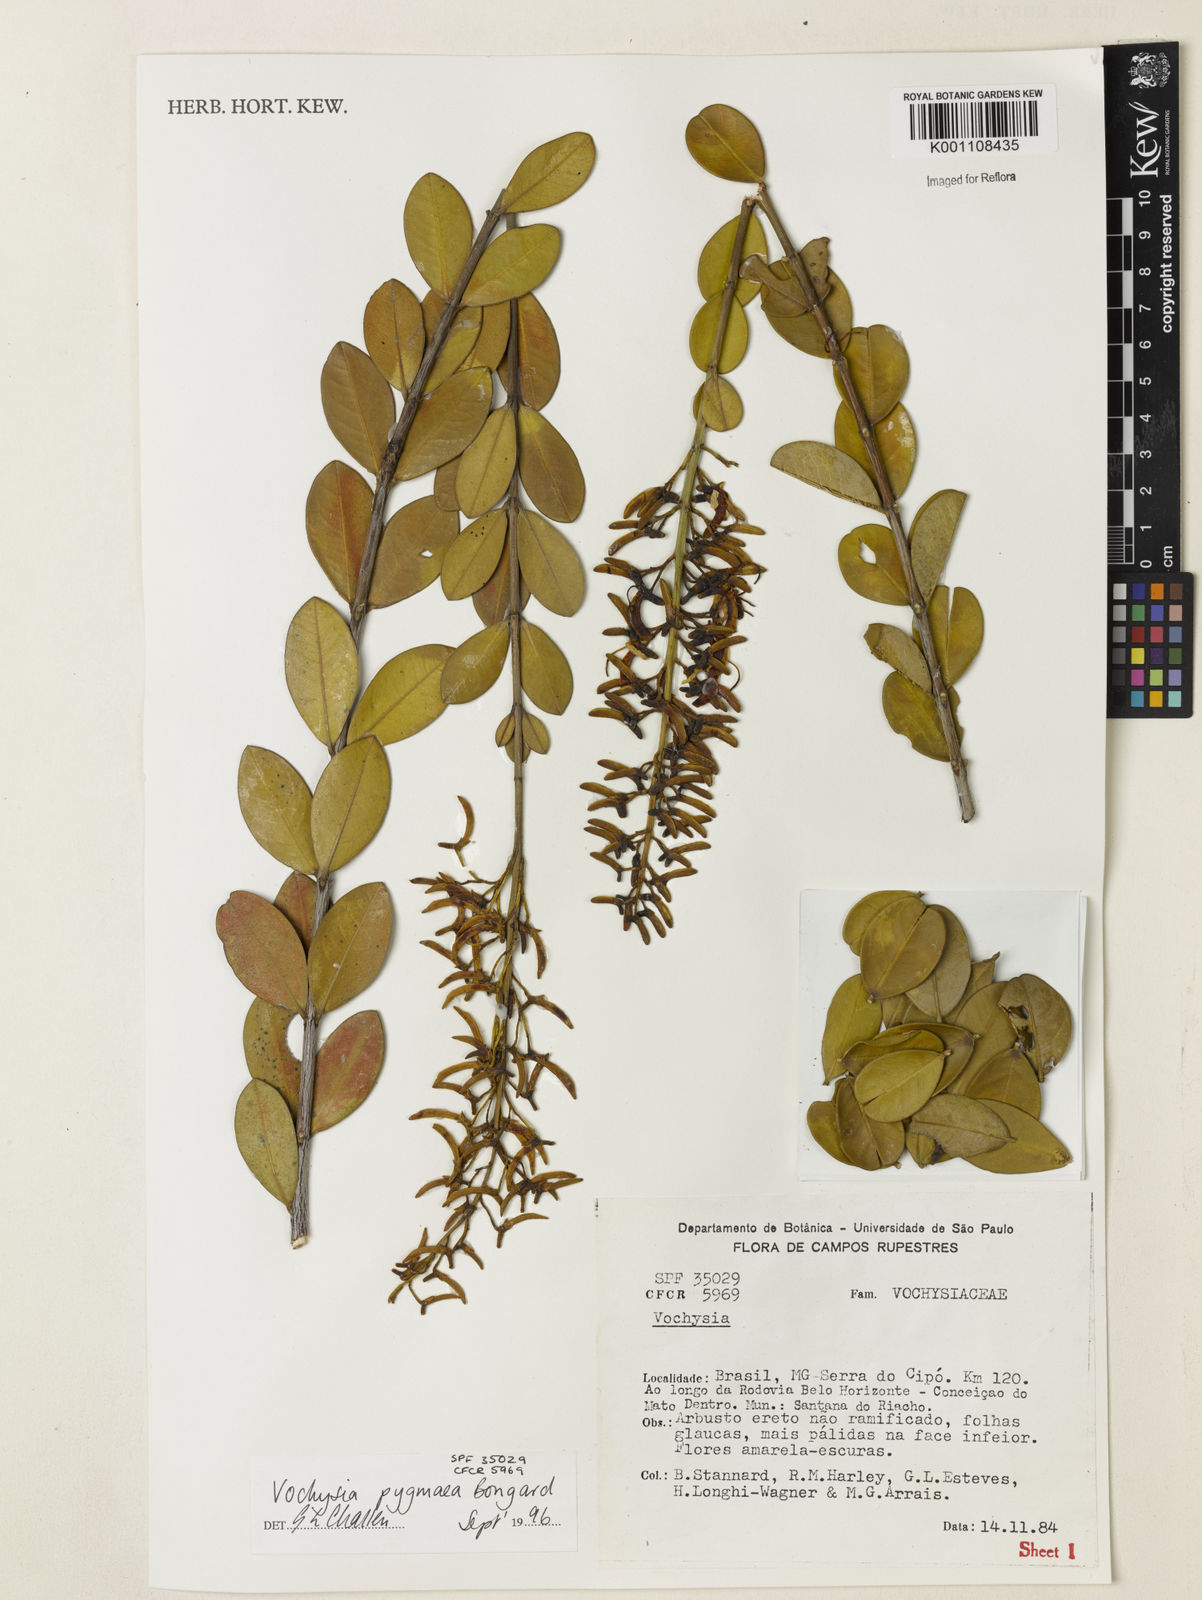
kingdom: Plantae
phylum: Tracheophyta
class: Magnoliopsida
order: Myrtales
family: Vochysiaceae
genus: Vochysia
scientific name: Vochysia pygmaea
